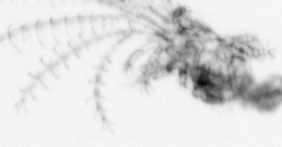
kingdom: Animalia
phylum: Arthropoda
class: Maxillopoda
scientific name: Maxillopoda
